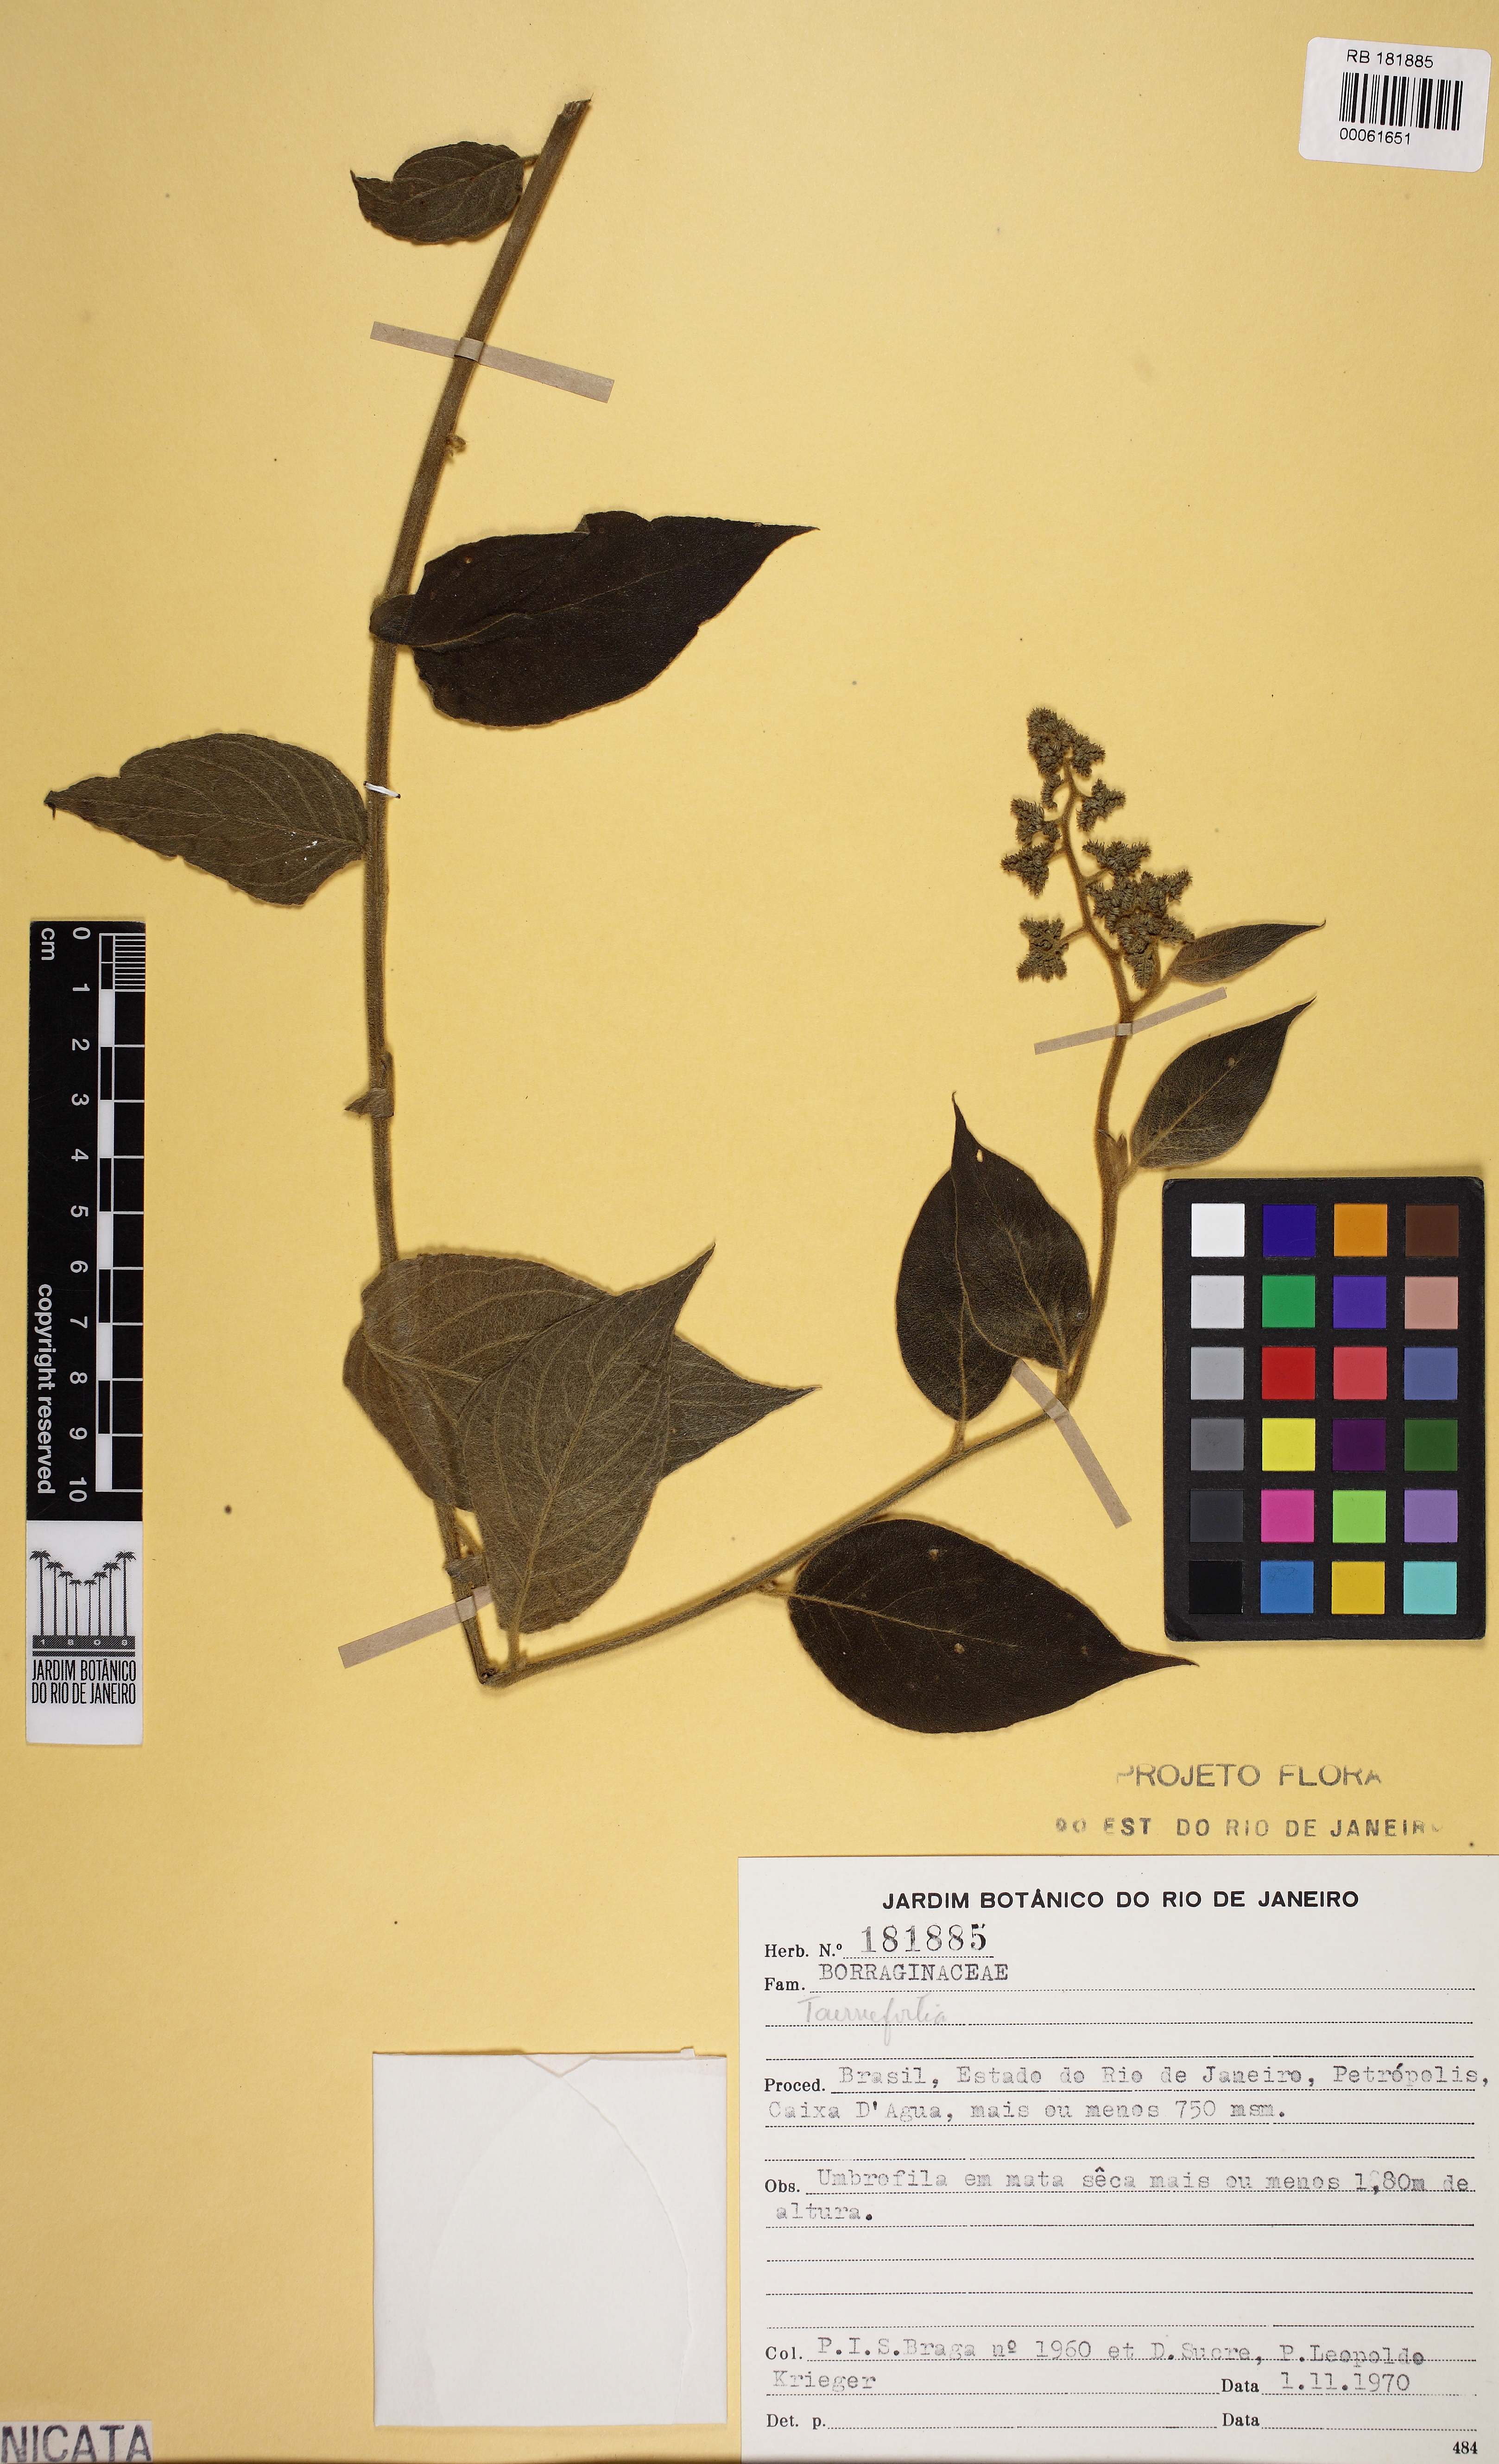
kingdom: Plantae
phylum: Tracheophyta
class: Magnoliopsida
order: Boraginales
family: Heliotropiaceae
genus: Tournefortia
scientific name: Tournefortia villosa
